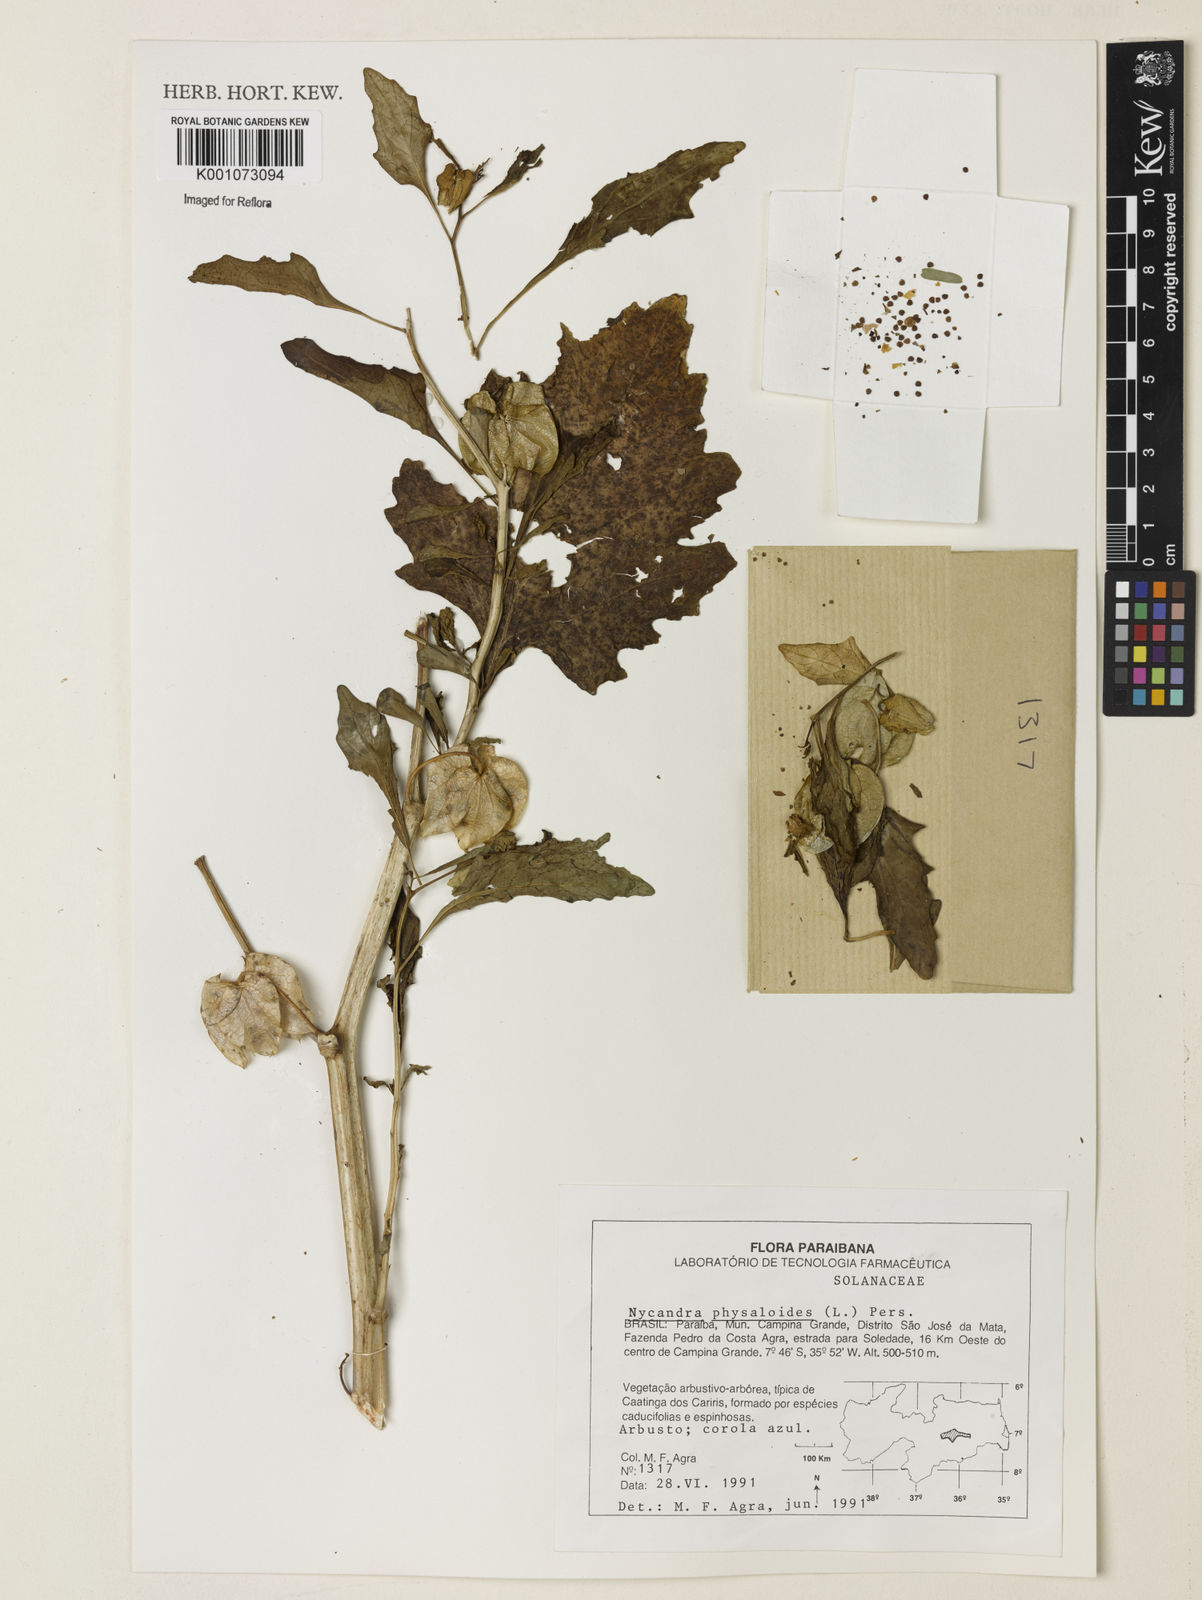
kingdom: Plantae
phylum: Tracheophyta
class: Magnoliopsida
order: Solanales
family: Solanaceae
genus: Nicandra
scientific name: Nicandra
